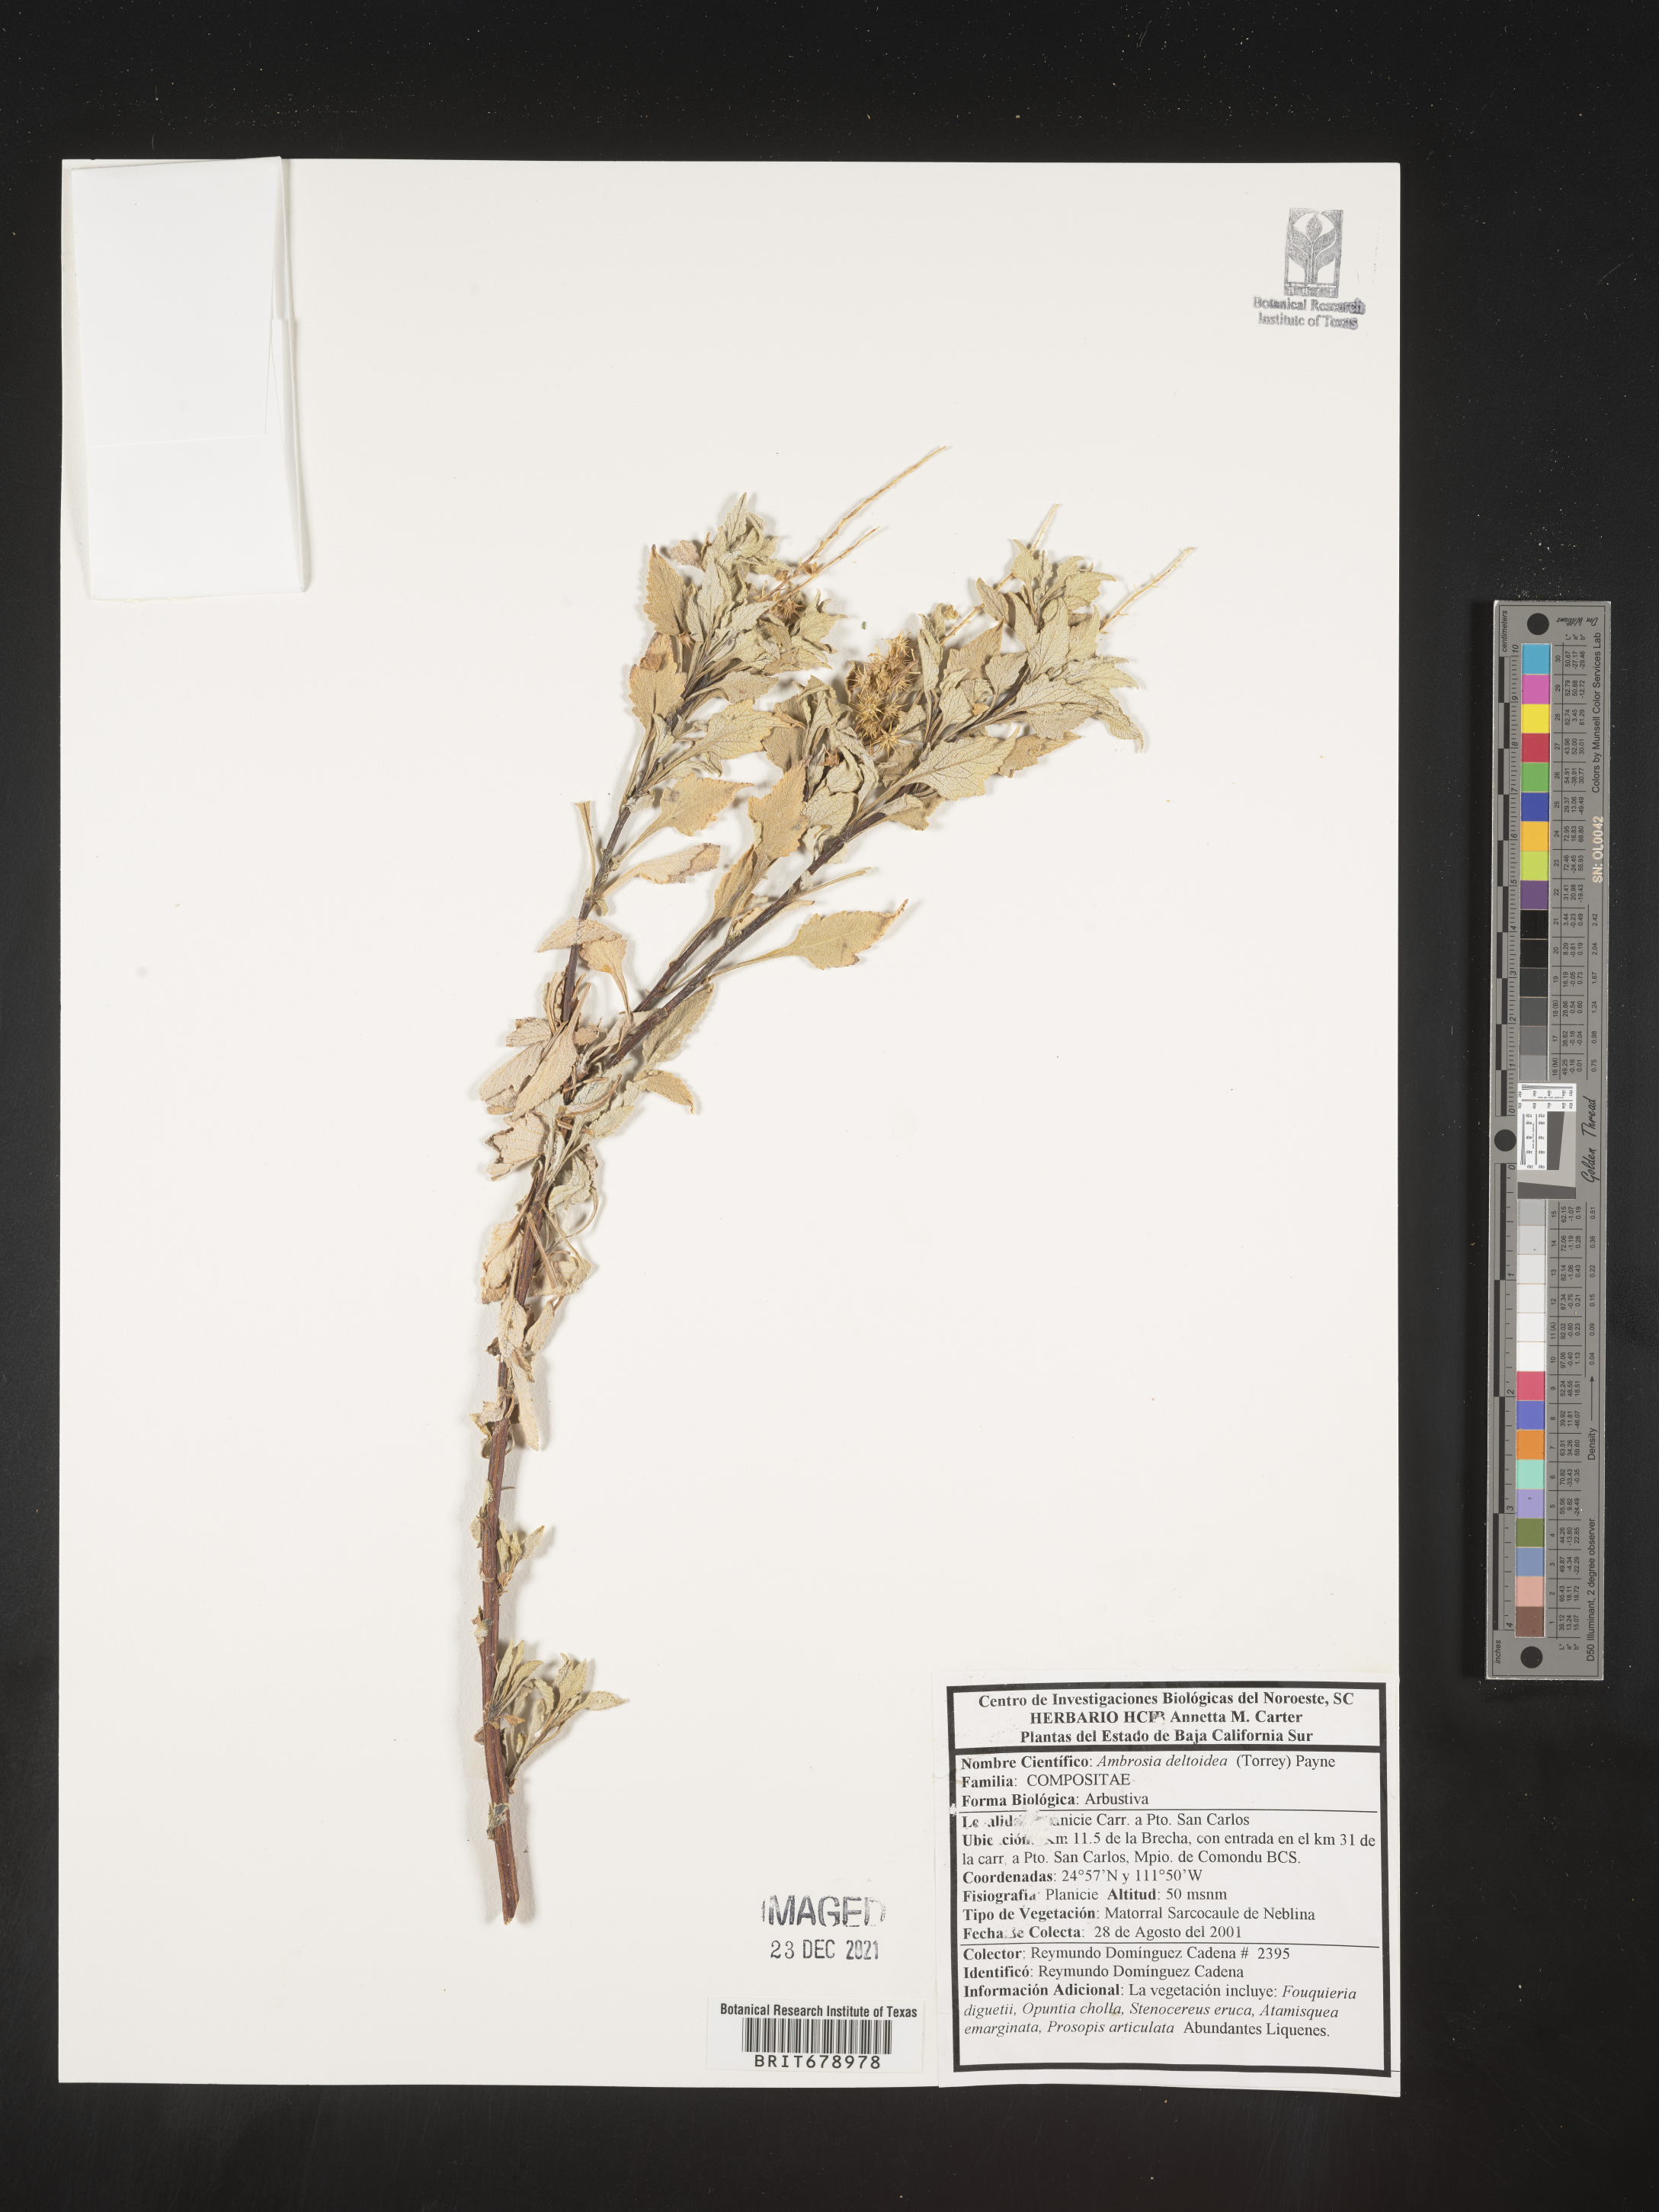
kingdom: Plantae
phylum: Tracheophyta
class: Magnoliopsida
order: Asterales
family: Asteraceae
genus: Ambrosia
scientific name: Ambrosia
